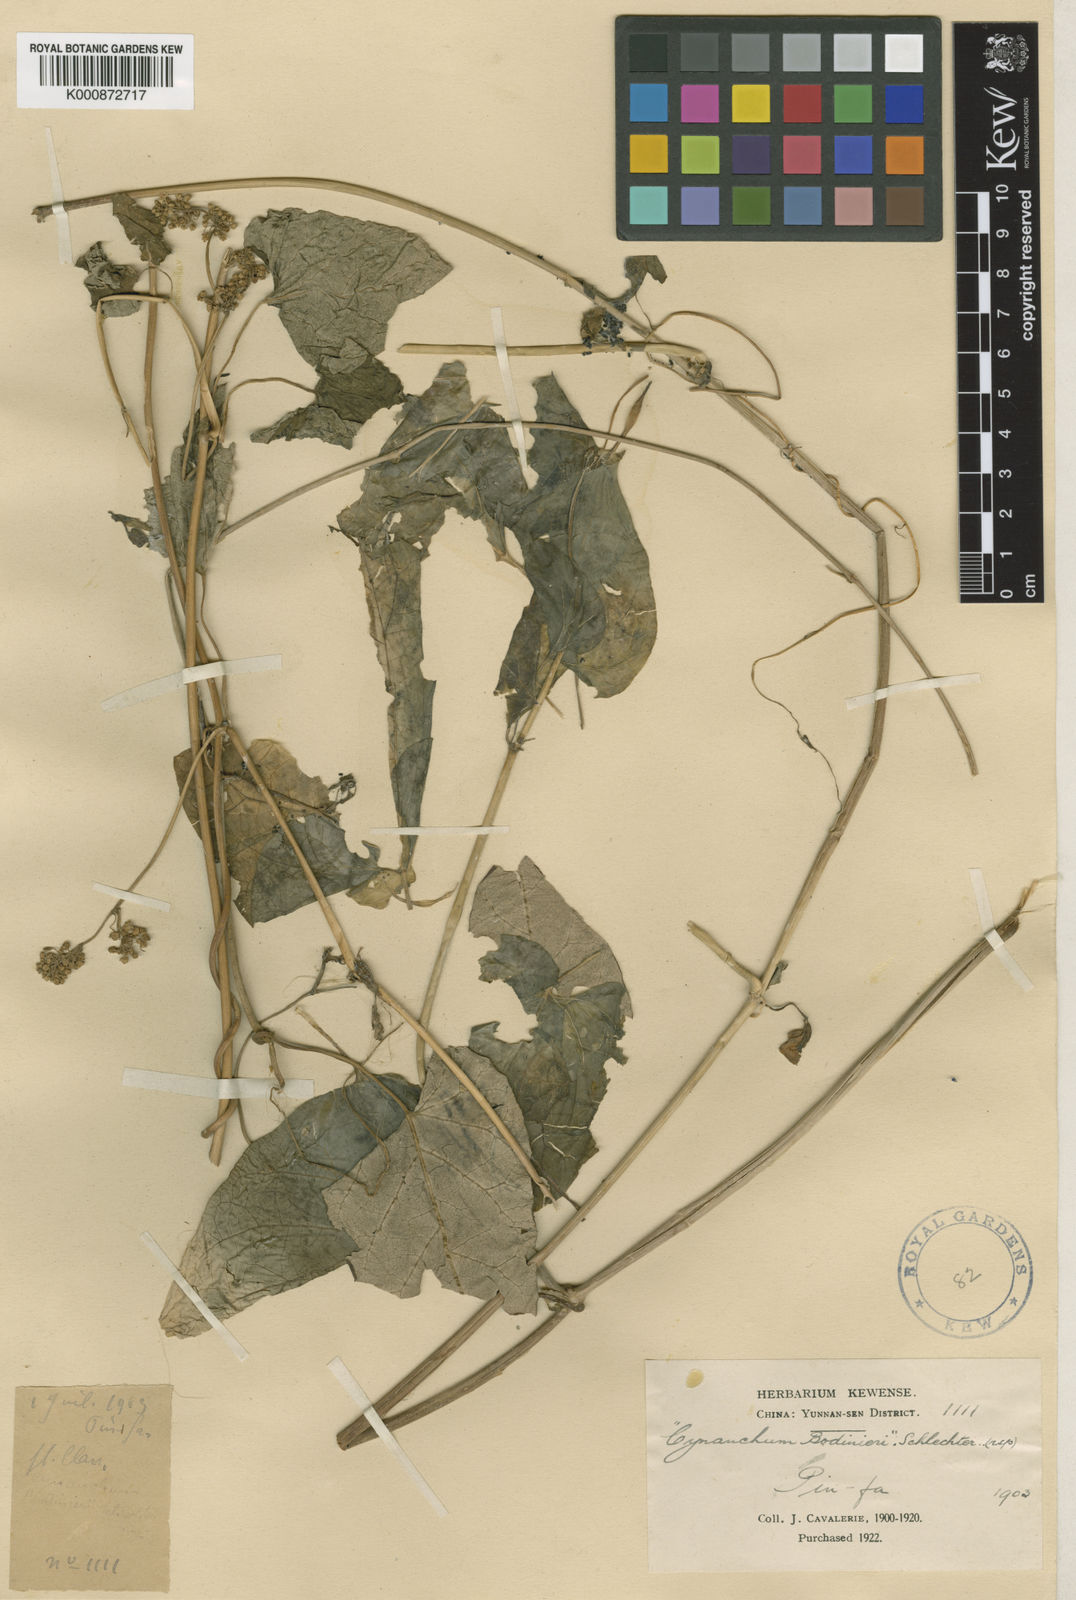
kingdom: Plantae
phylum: Tracheophyta
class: Magnoliopsida
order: Gentianales
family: Apocynaceae
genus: Cynanchum
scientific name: Cynanchum officinale
